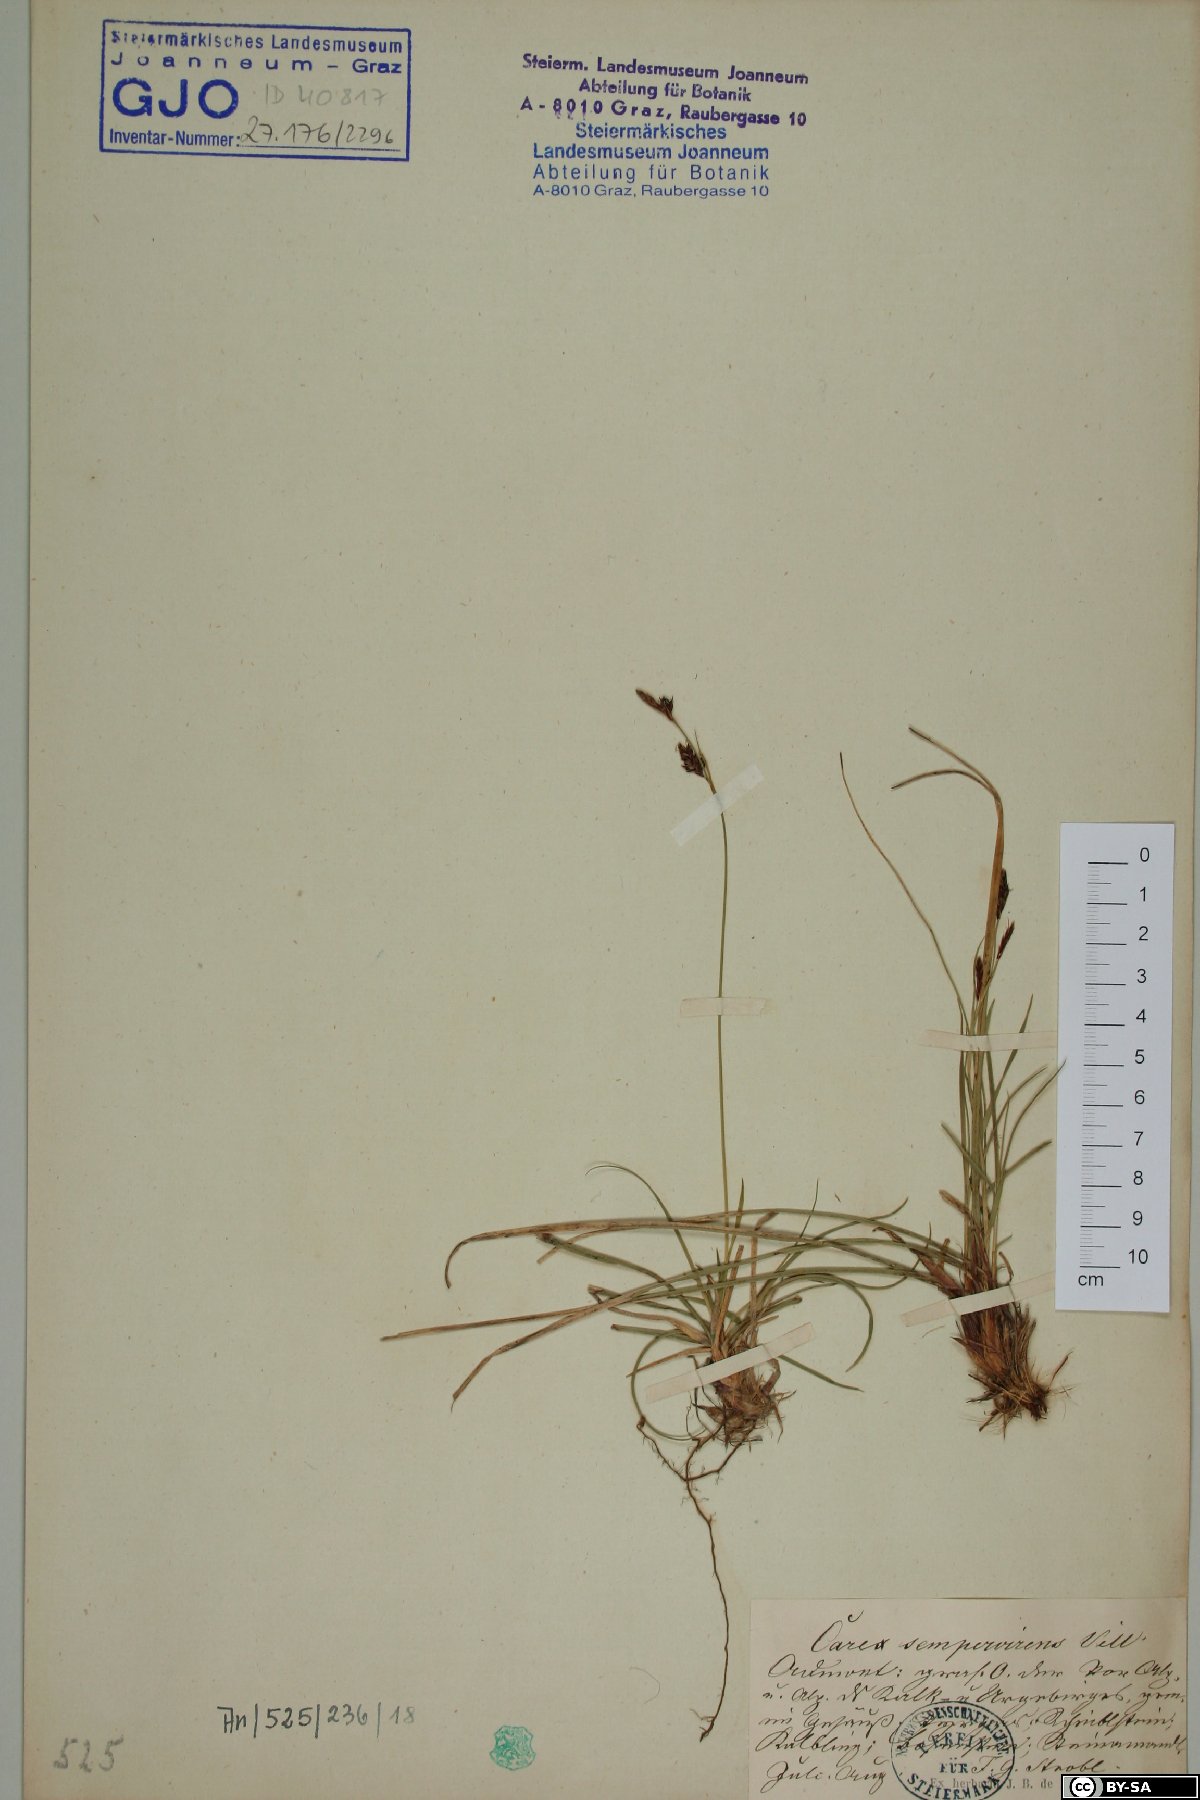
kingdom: Plantae
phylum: Tracheophyta
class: Liliopsida
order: Poales
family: Cyperaceae
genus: Carex
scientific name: Carex sempervirens
